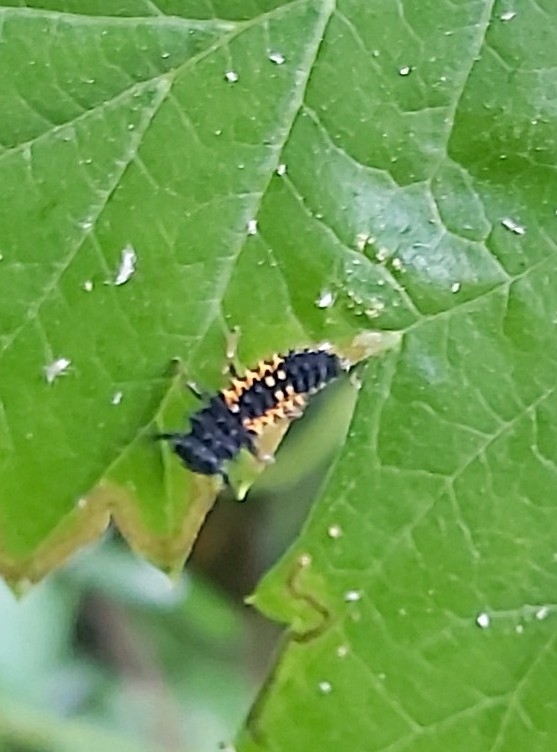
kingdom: Animalia
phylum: Arthropoda
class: Insecta
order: Coleoptera
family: Coccinellidae
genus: Harmonia
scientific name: Harmonia axyridis
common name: Harlekinmariehøne
